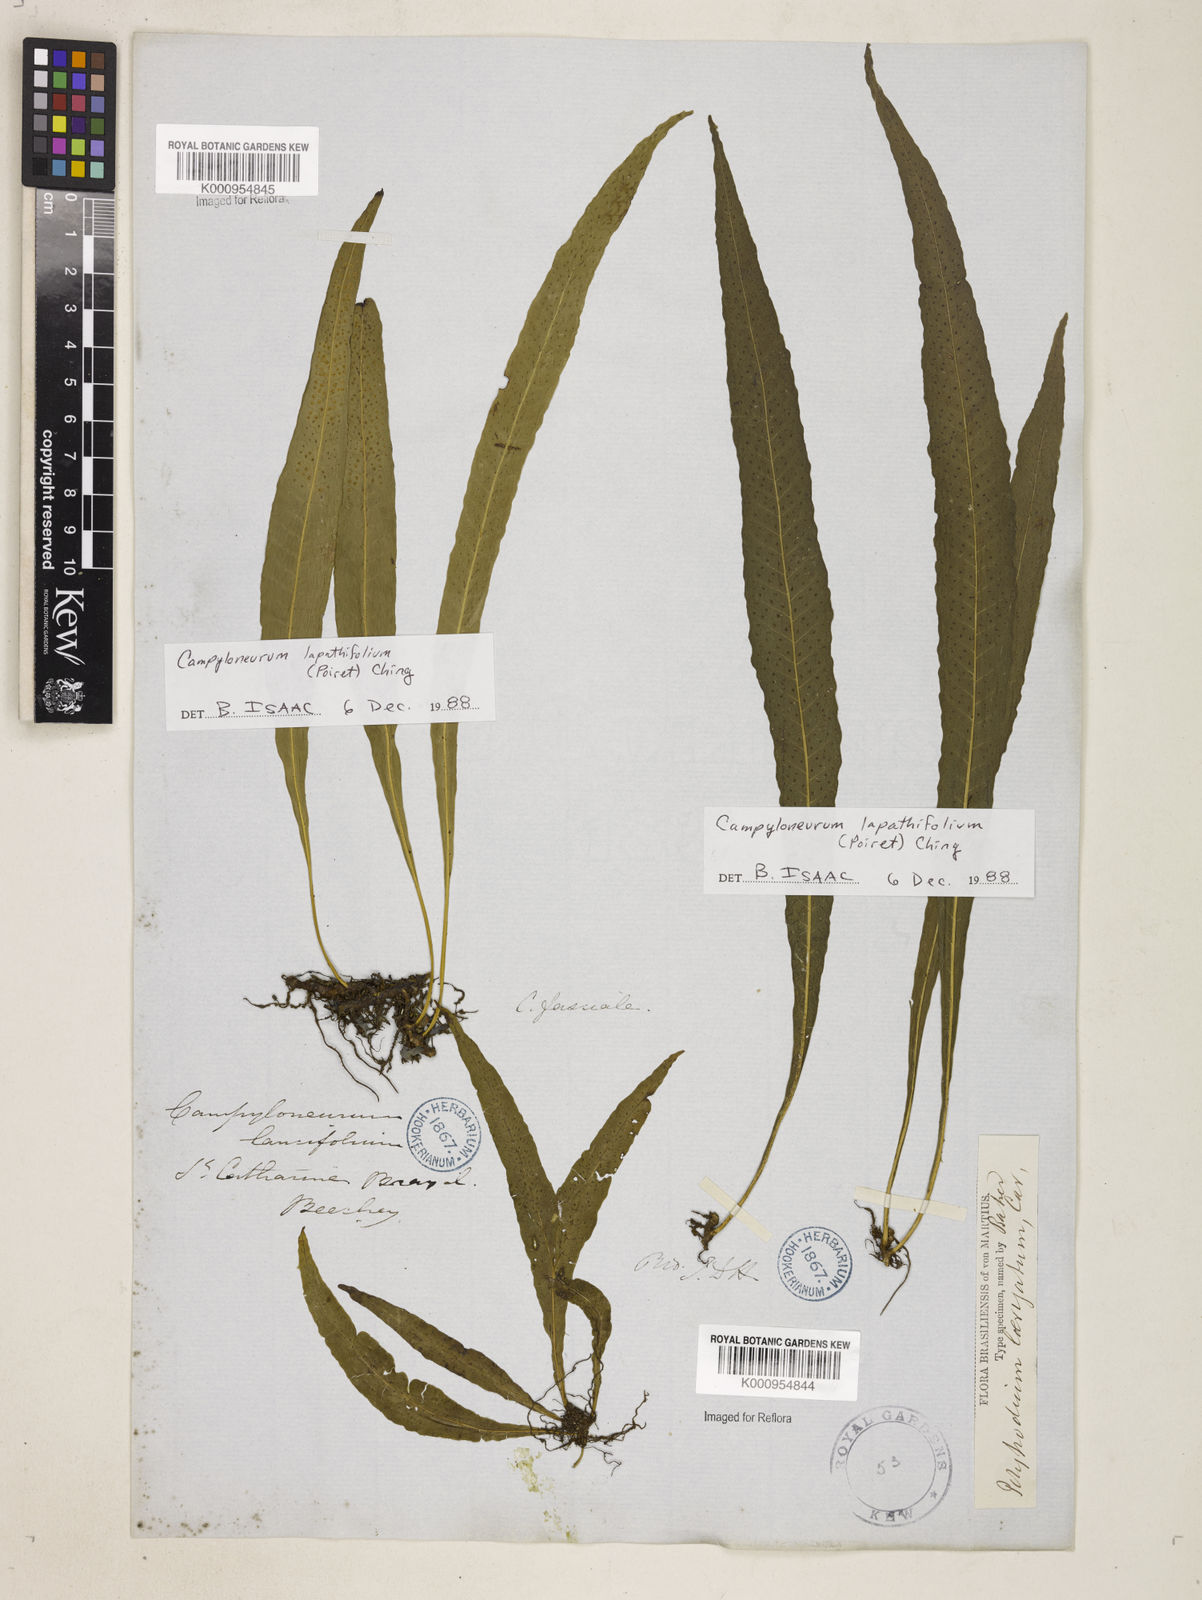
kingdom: Plantae
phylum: Tracheophyta
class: Polypodiopsida
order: Polypodiales
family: Polypodiaceae
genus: Campyloneurum
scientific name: Campyloneurum repens
